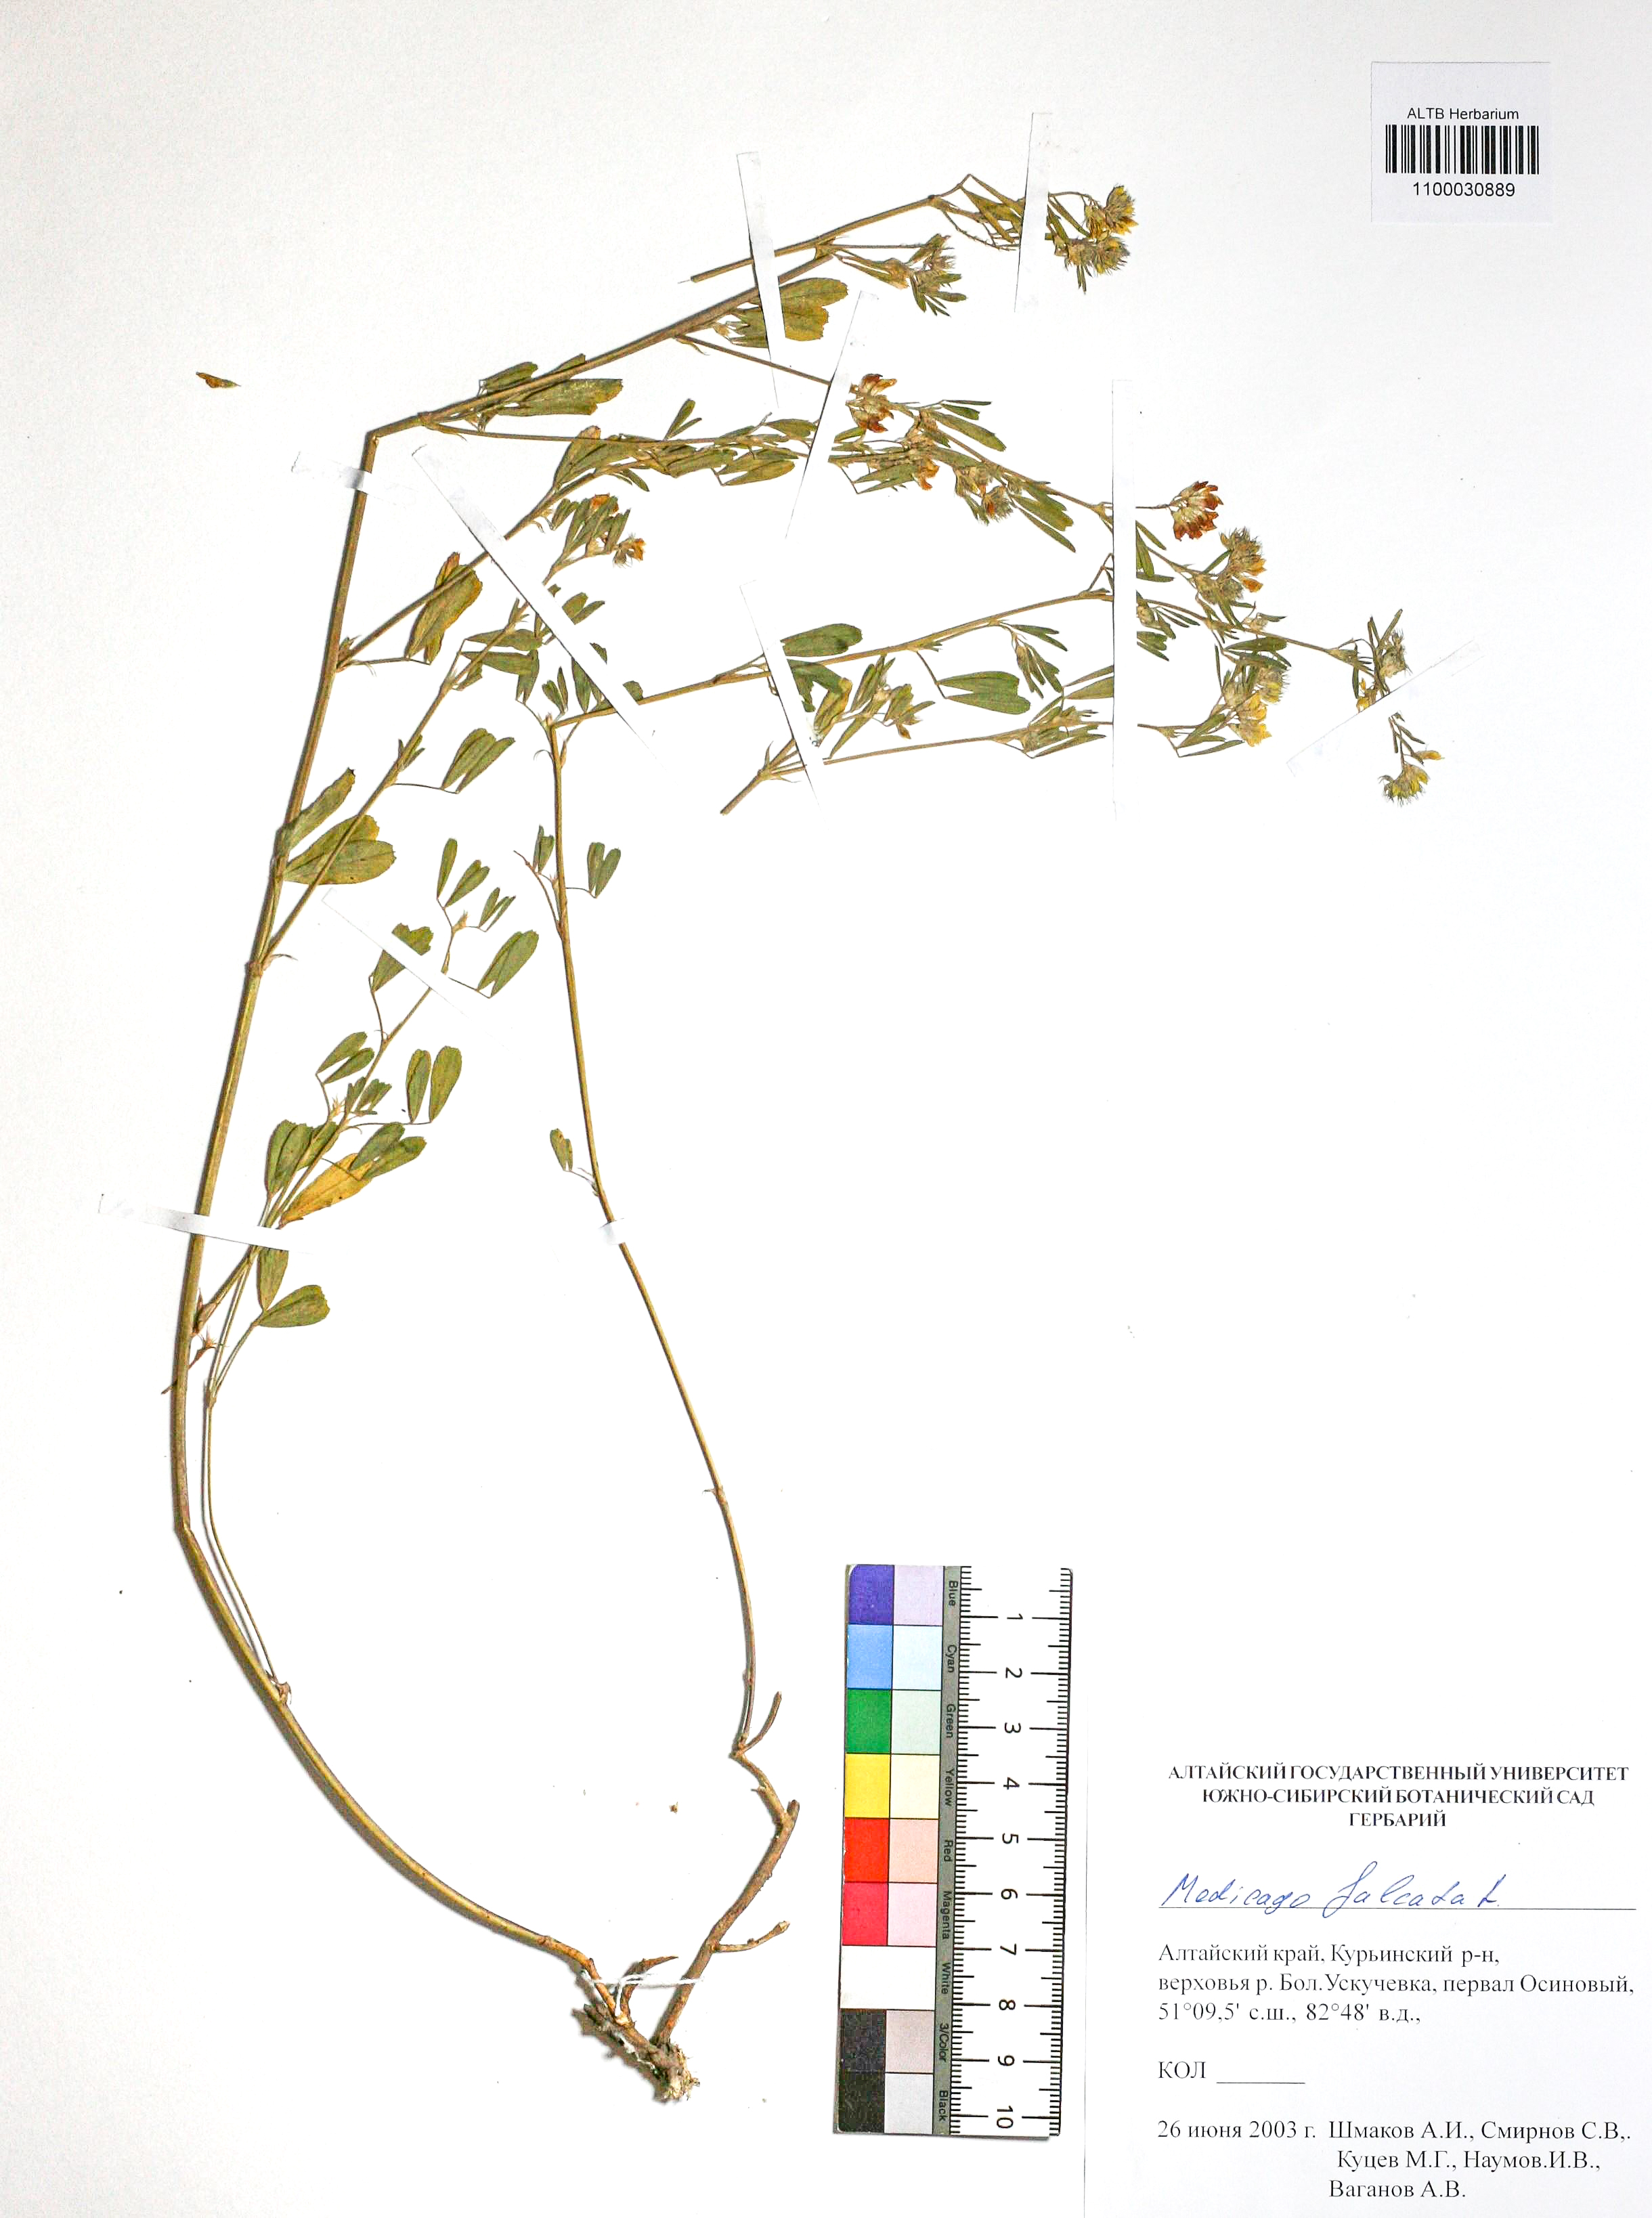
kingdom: Plantae
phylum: Tracheophyta
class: Magnoliopsida
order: Fabales
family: Fabaceae
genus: Medicago
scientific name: Medicago falcata
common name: Sickle medick
